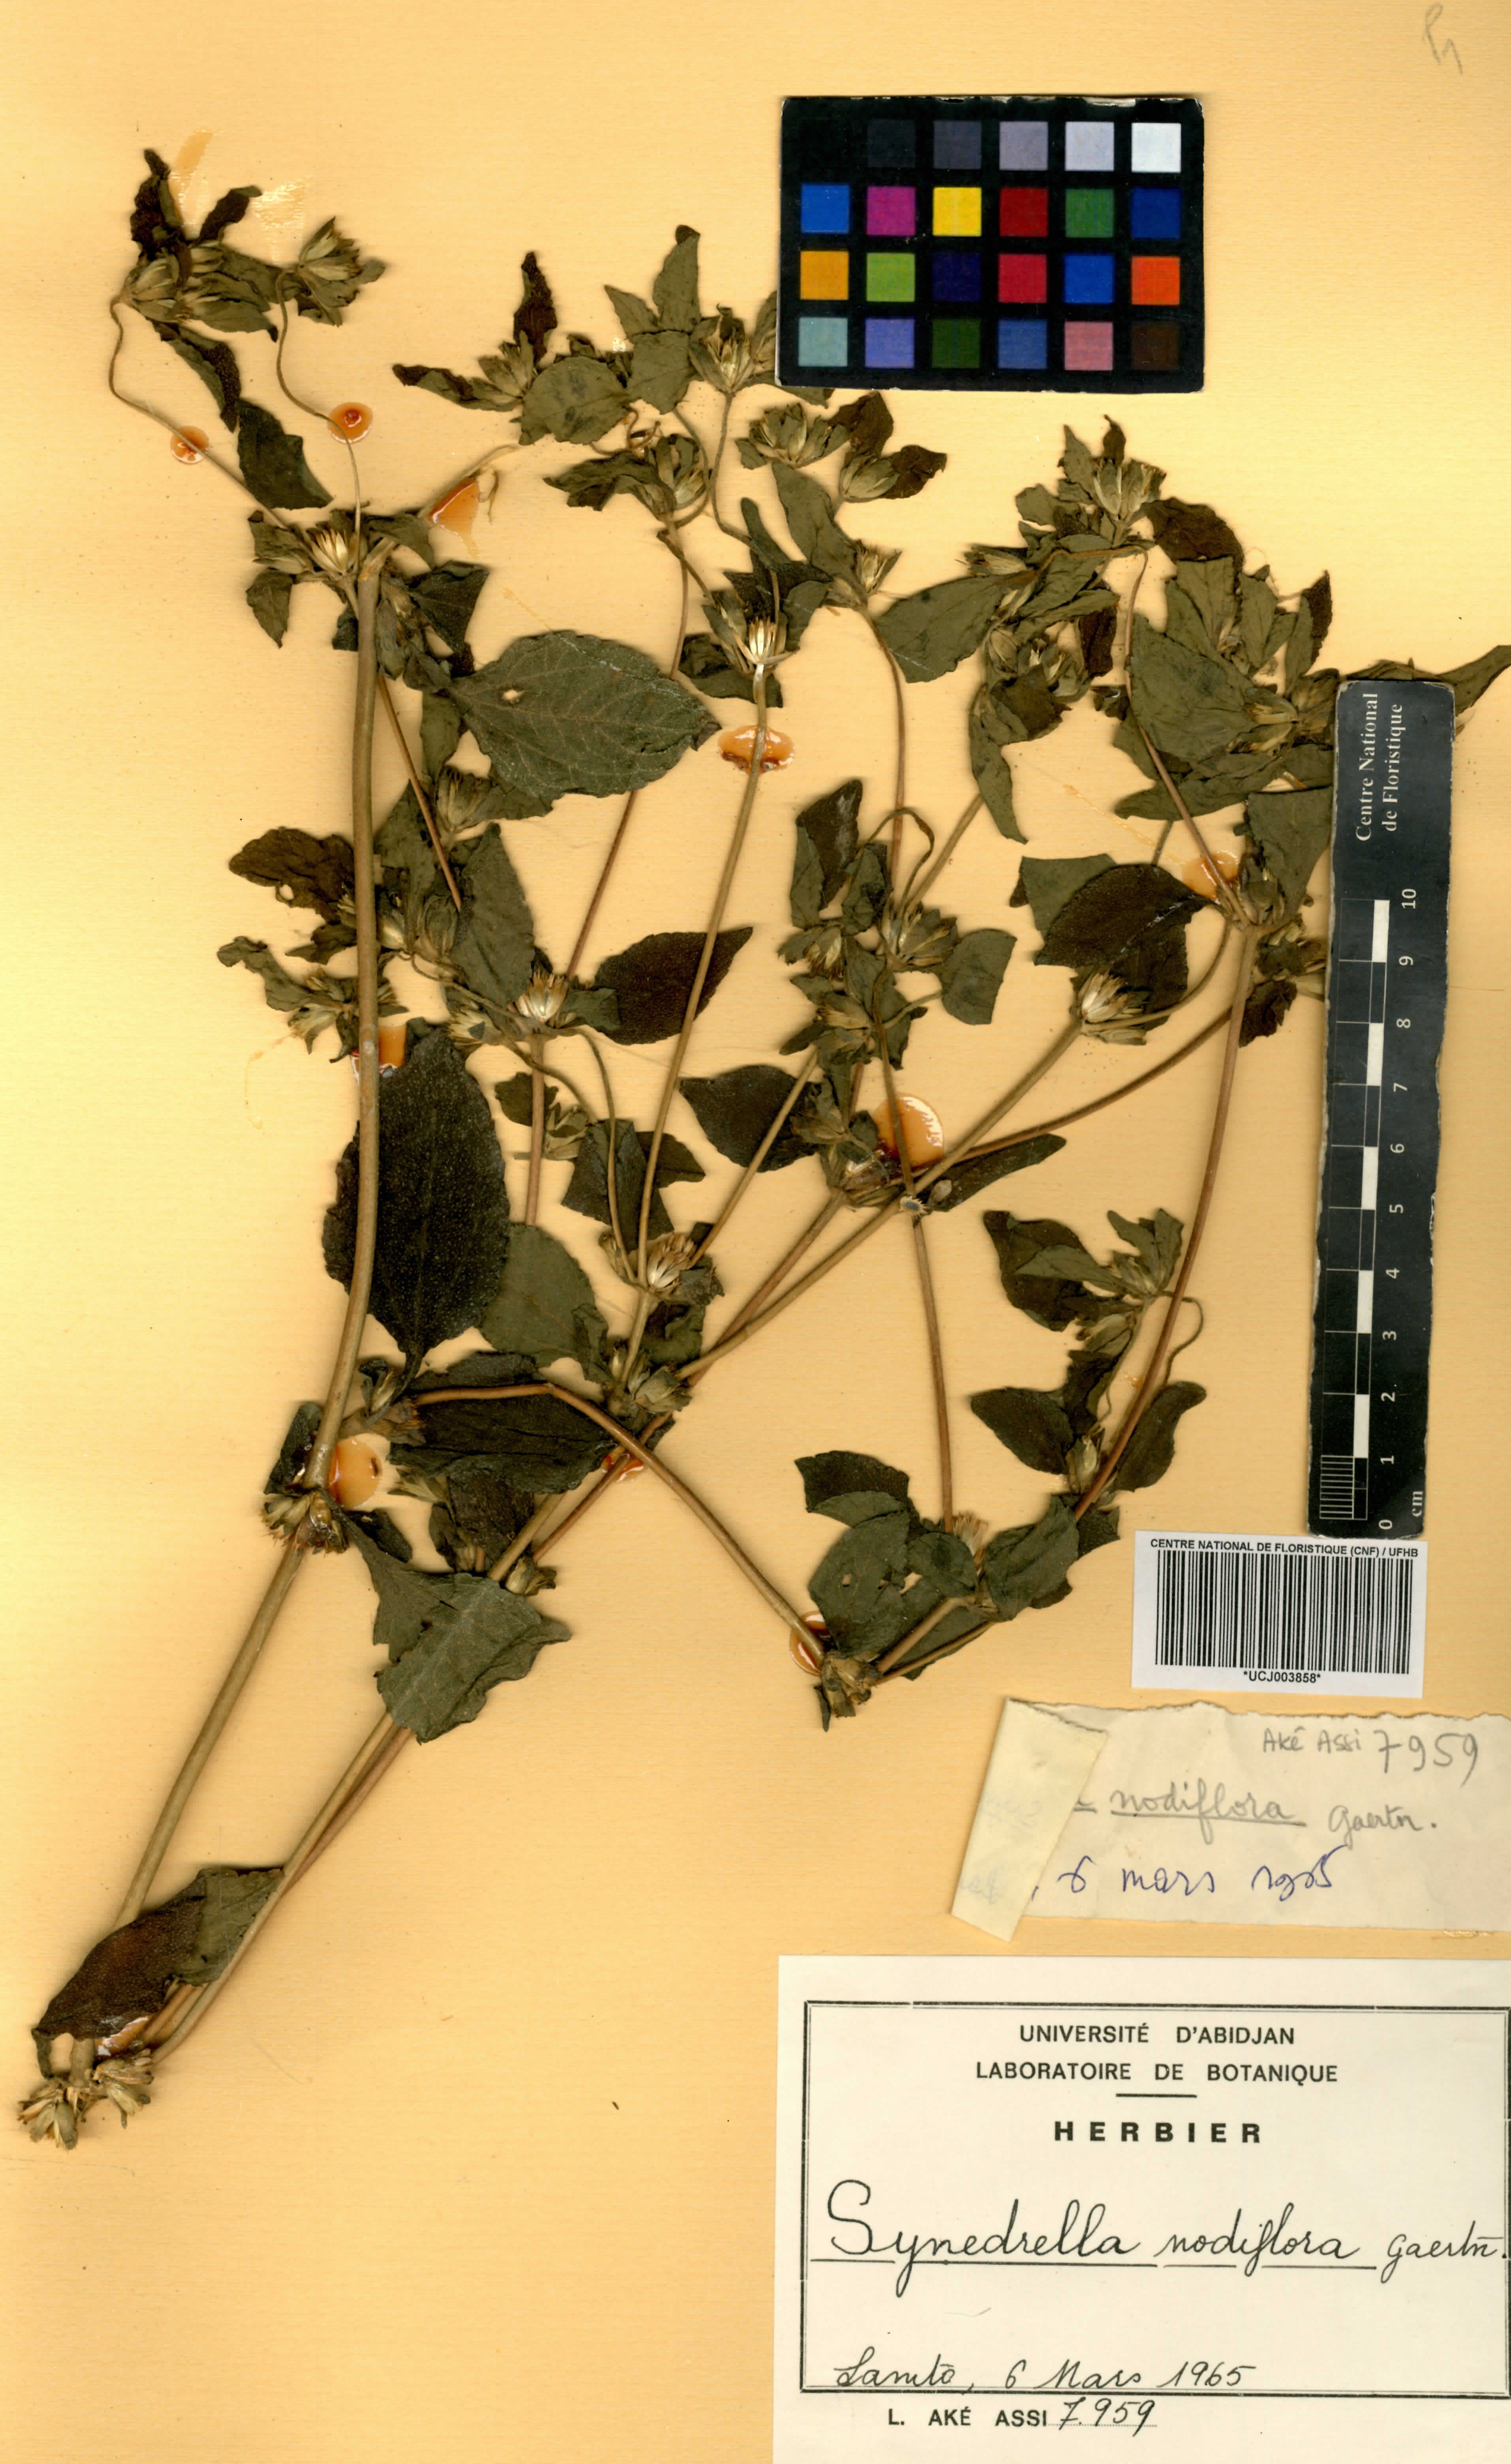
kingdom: Plantae
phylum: Tracheophyta
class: Magnoliopsida
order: Asterales
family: Asteraceae
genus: Synedrella
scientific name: Synedrella nodiflora
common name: Nodeweed
